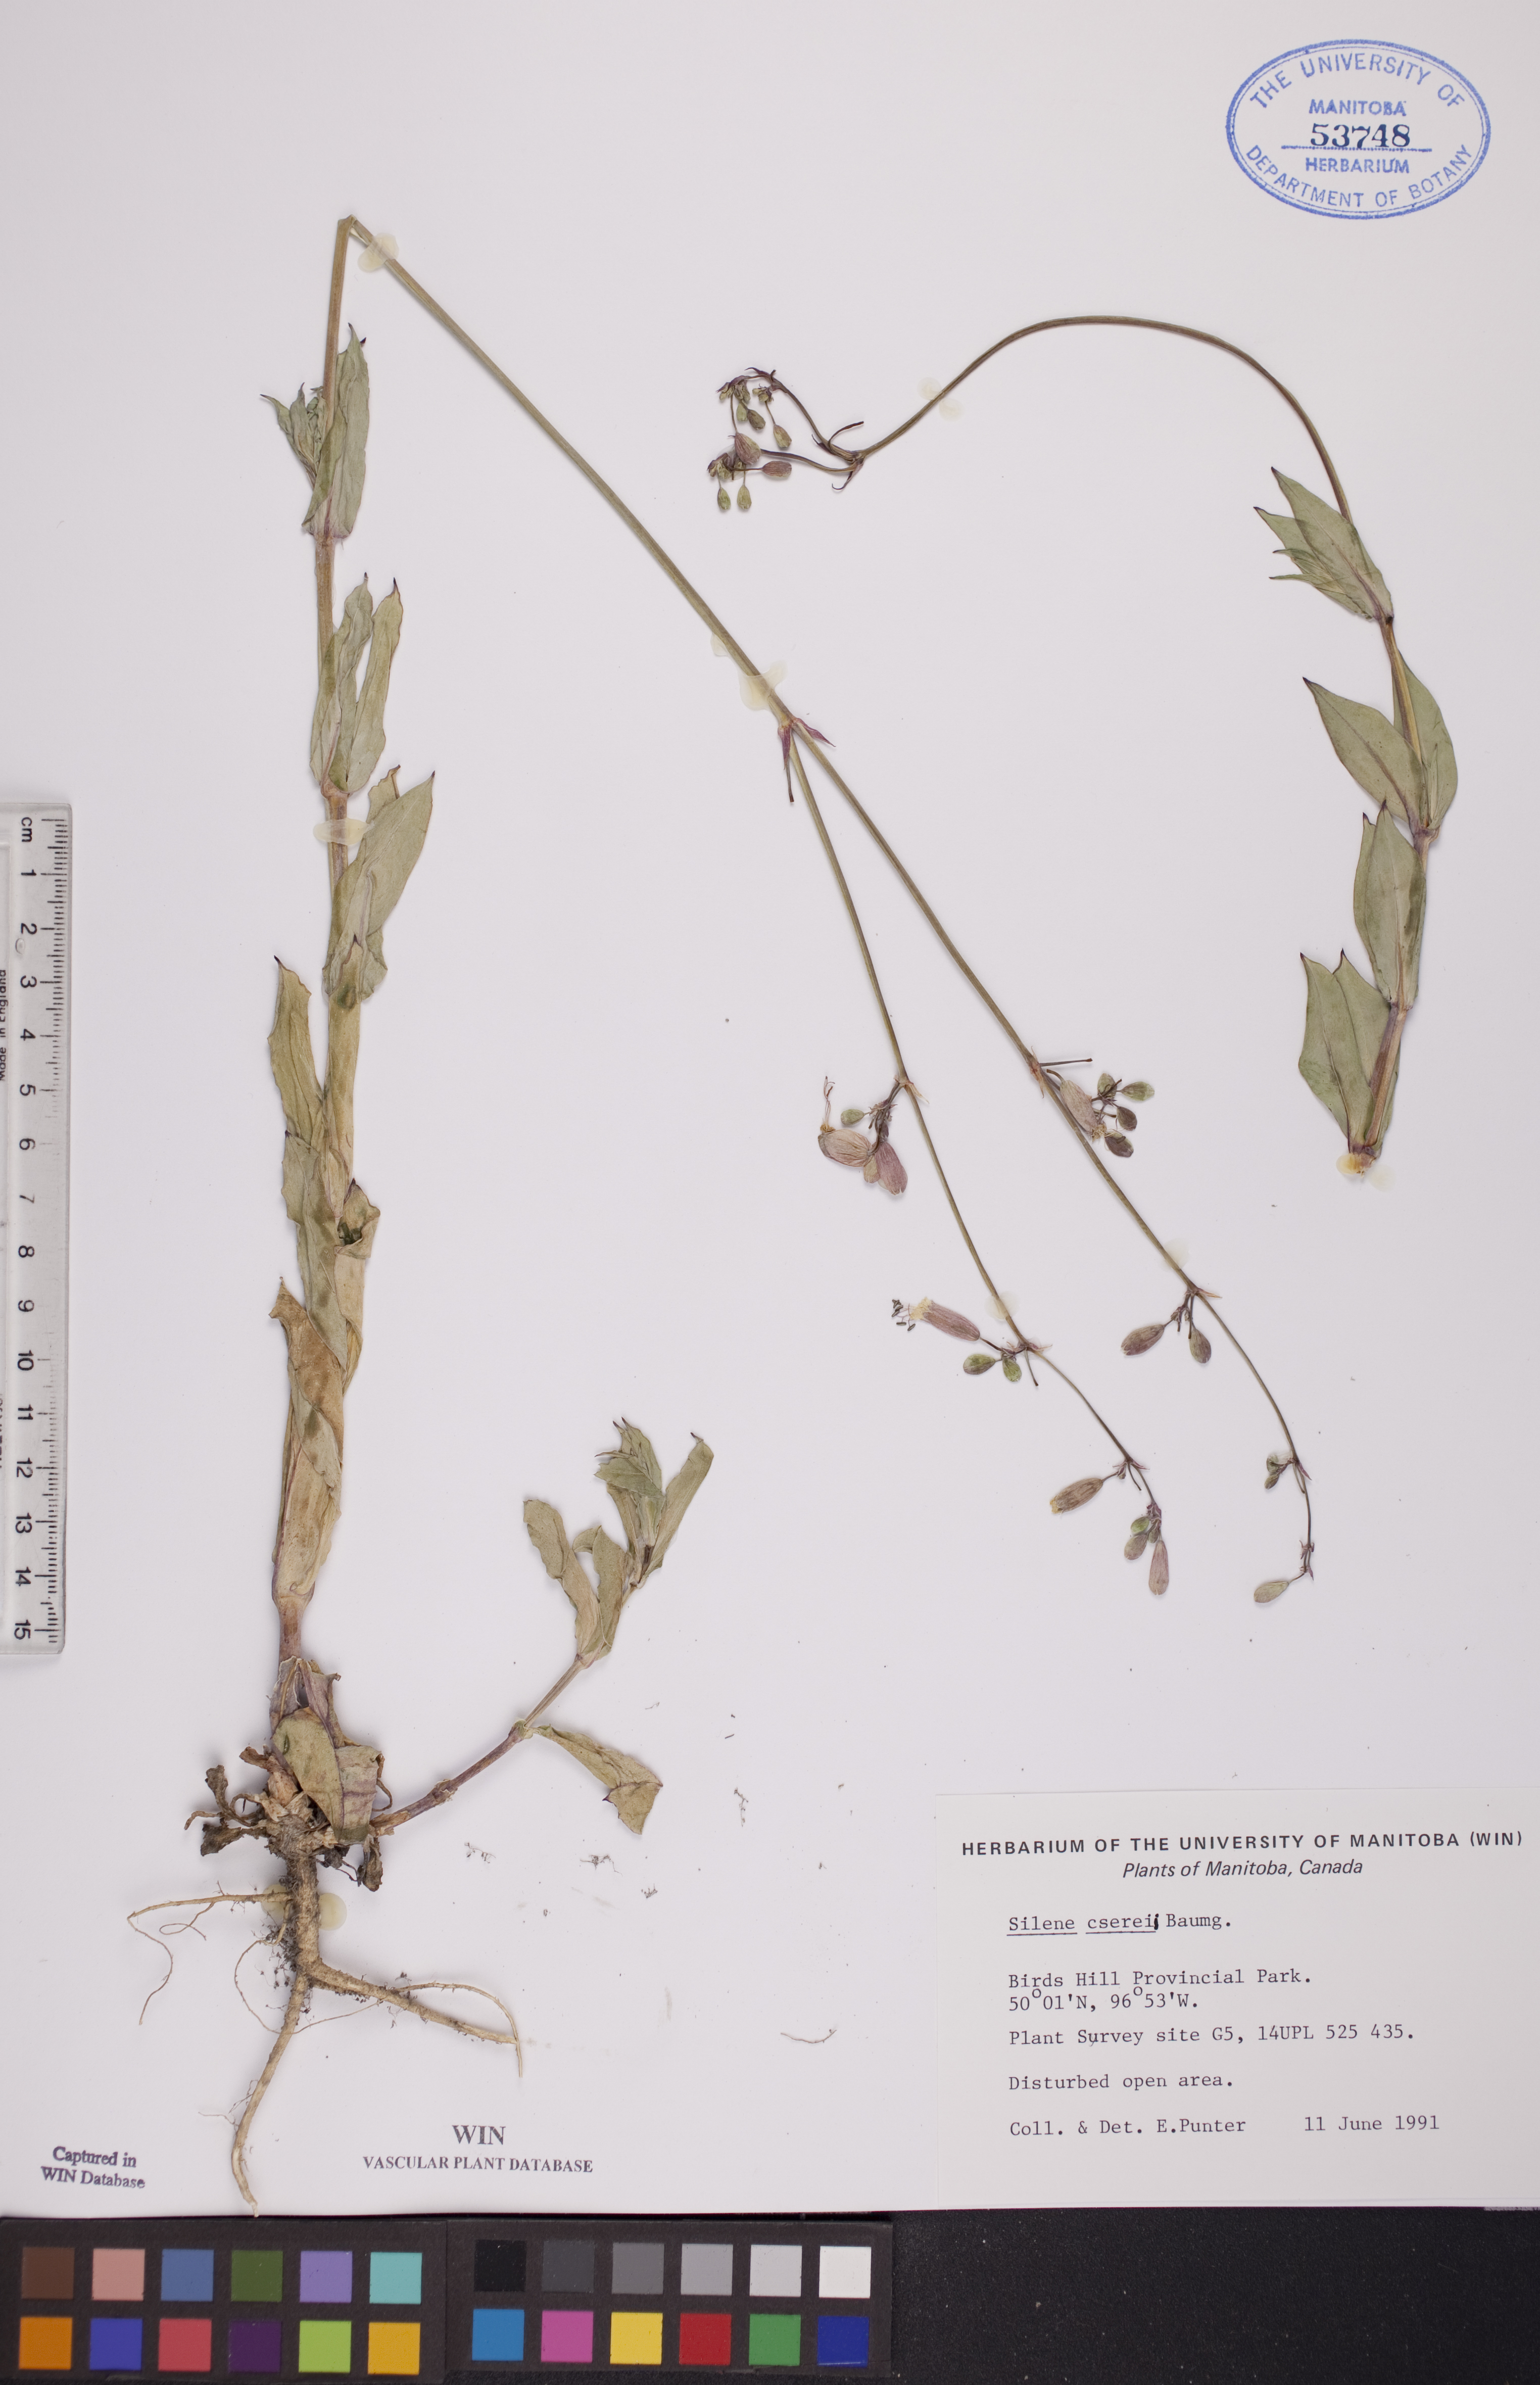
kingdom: Plantae
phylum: Tracheophyta
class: Magnoliopsida
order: Caryophyllales
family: Caryophyllaceae
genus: Silene
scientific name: Silene csereii
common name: Balkan catchfly
